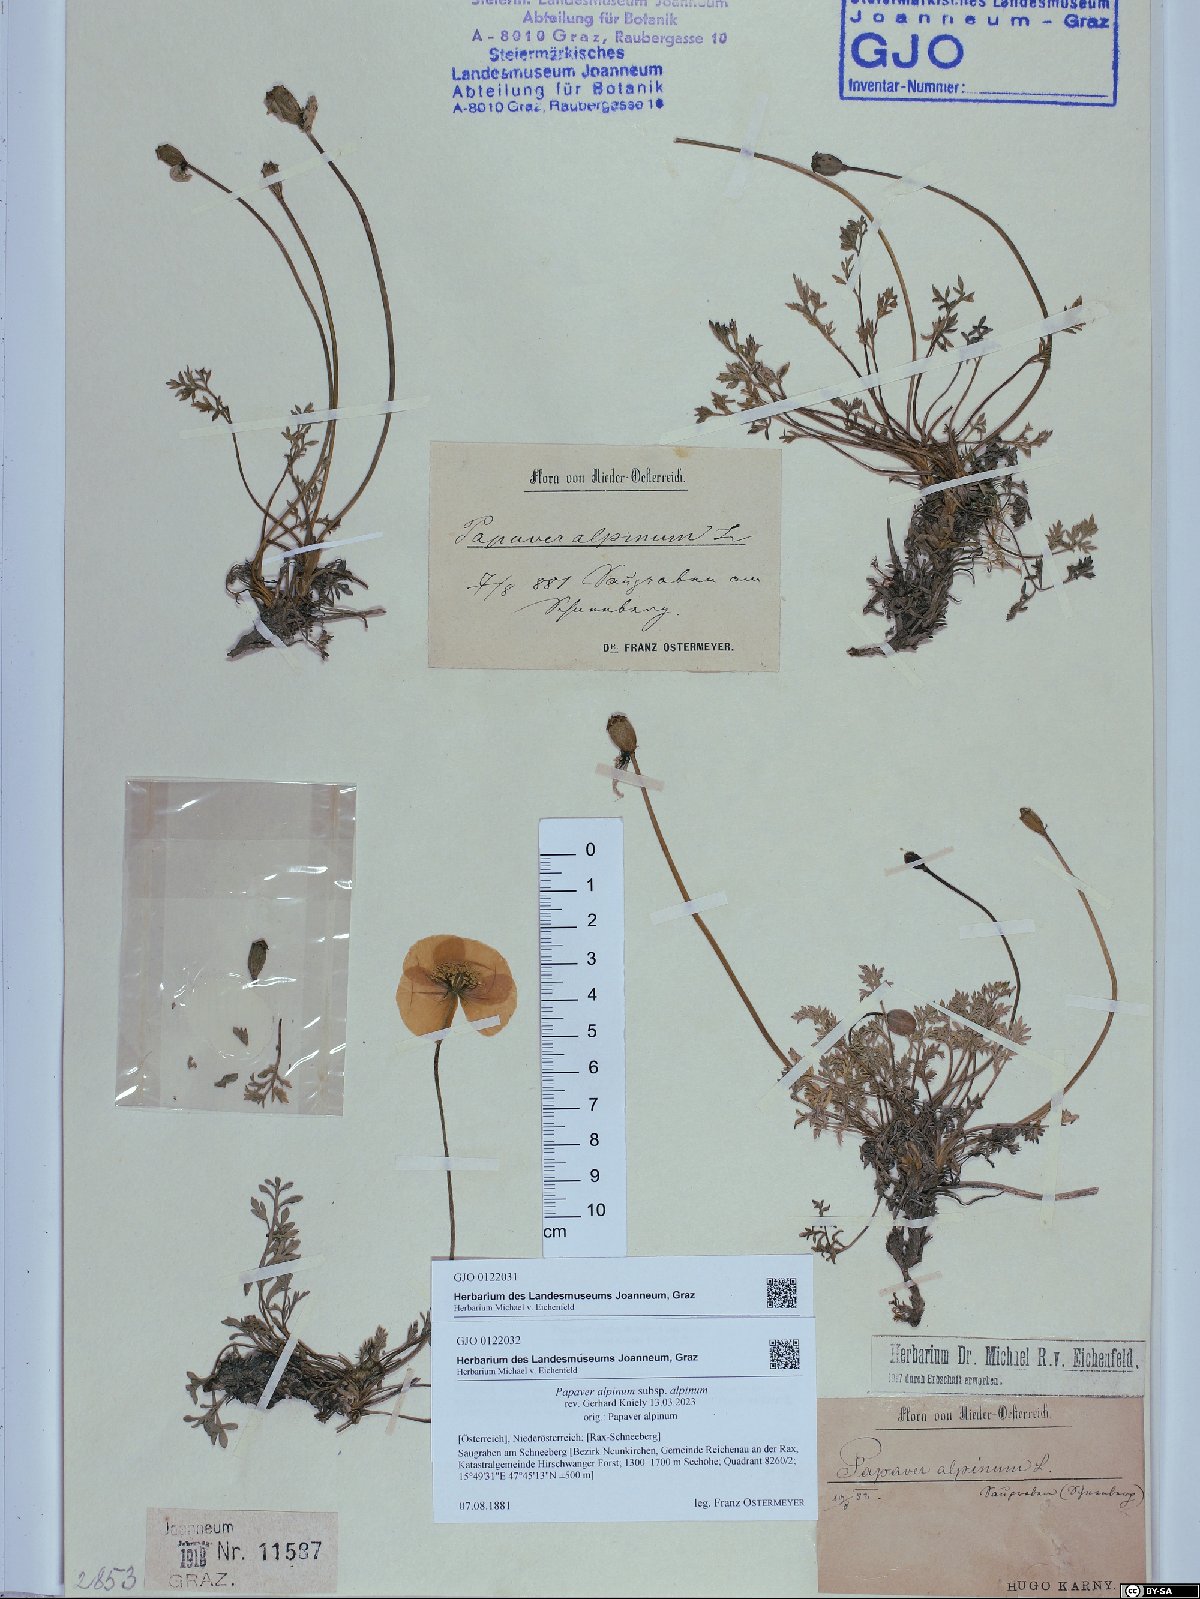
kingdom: Plantae
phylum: Tracheophyta
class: Magnoliopsida
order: Ranunculales
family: Papaveraceae
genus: Papaver
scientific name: Papaver alpinum
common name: Austrian poppy
